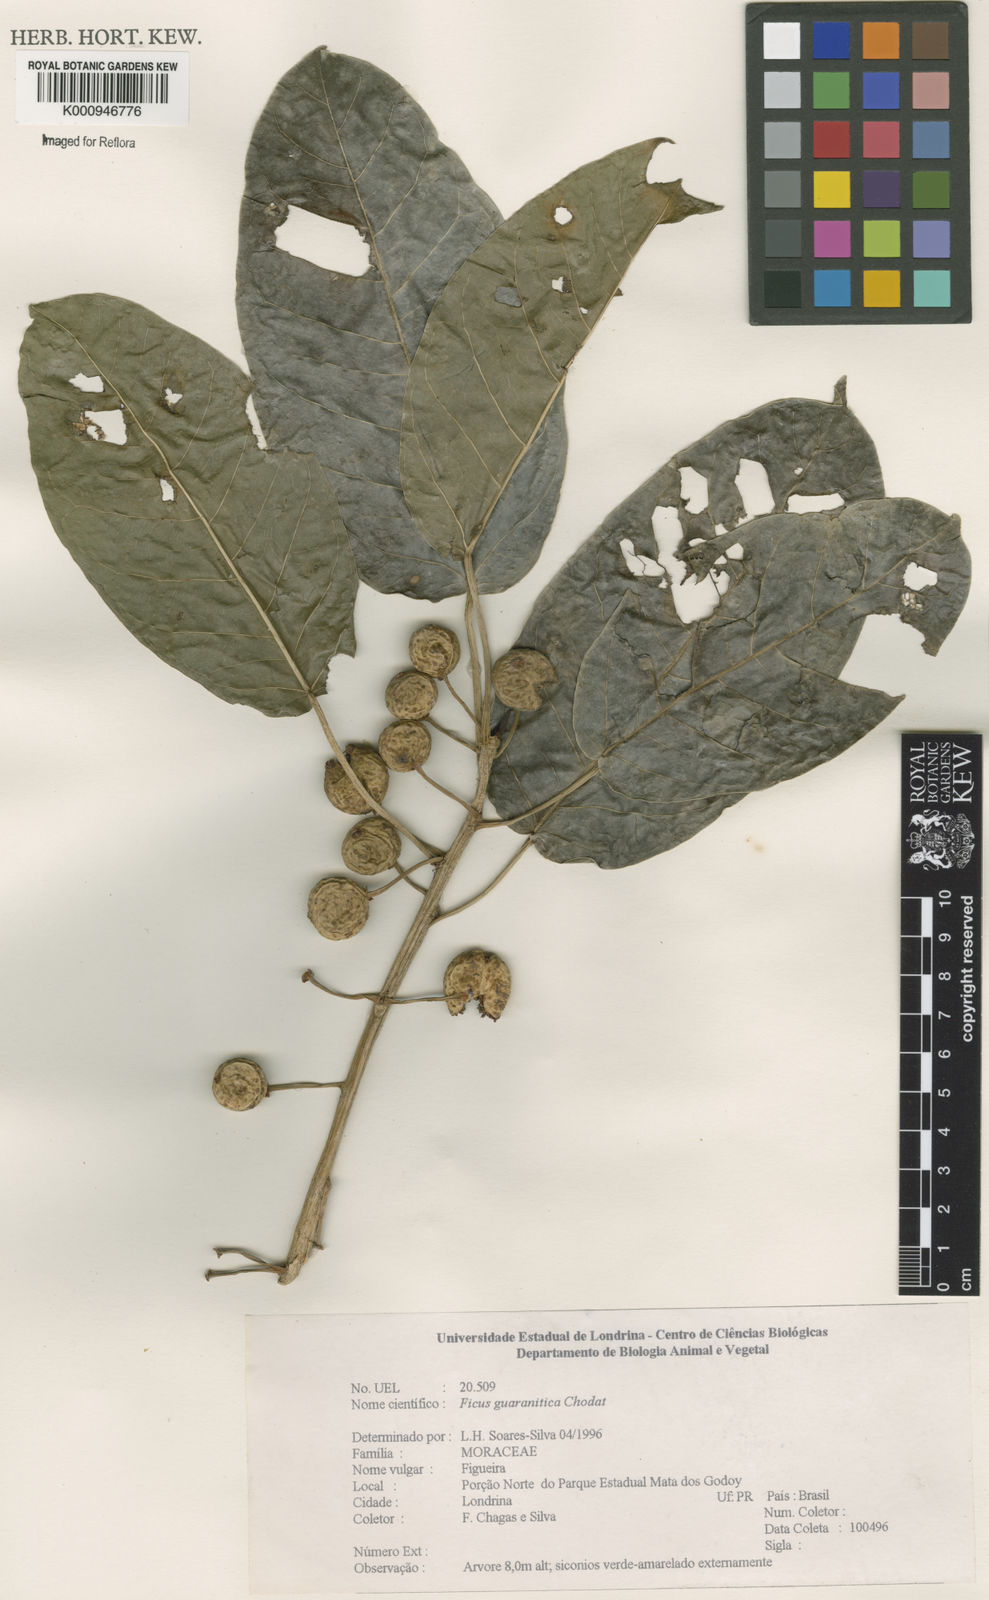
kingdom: Plantae
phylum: Tracheophyta
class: Magnoliopsida
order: Rosales
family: Moraceae
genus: Ficus
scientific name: Ficus guaranitica
